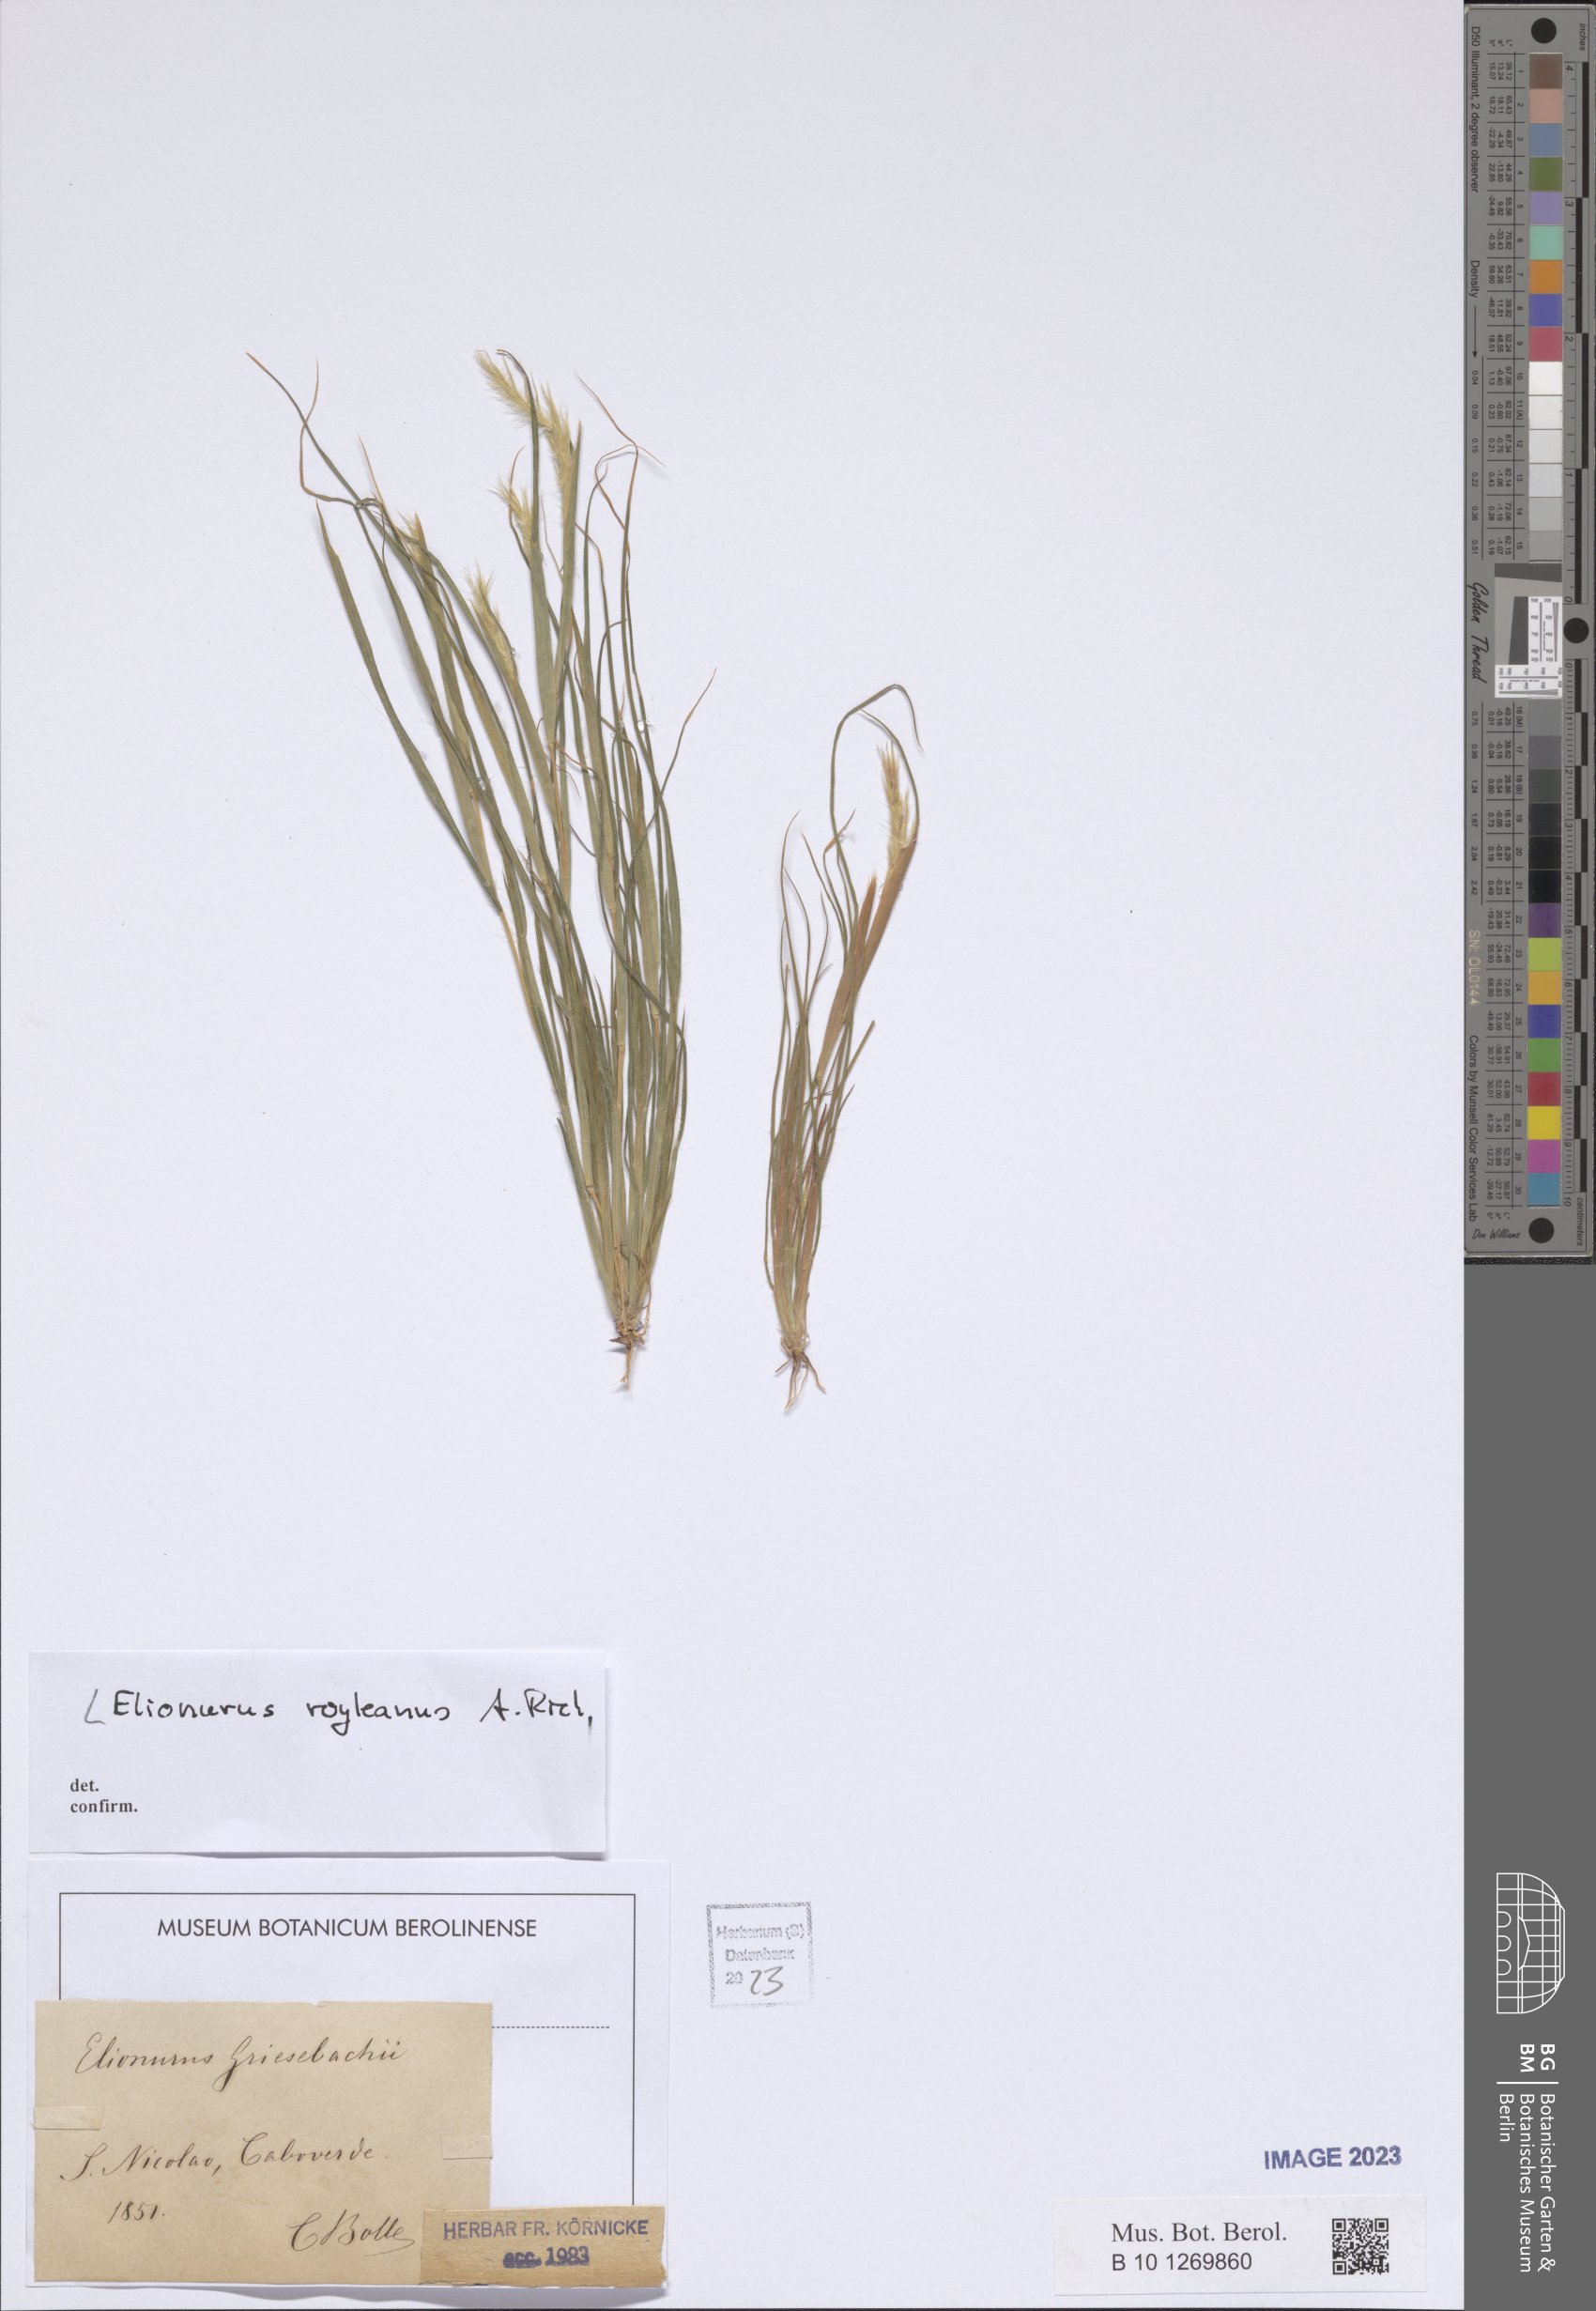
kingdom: Plantae
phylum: Tracheophyta
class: Liliopsida
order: Poales
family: Poaceae
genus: Elionurus
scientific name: Elionurus royleanus
